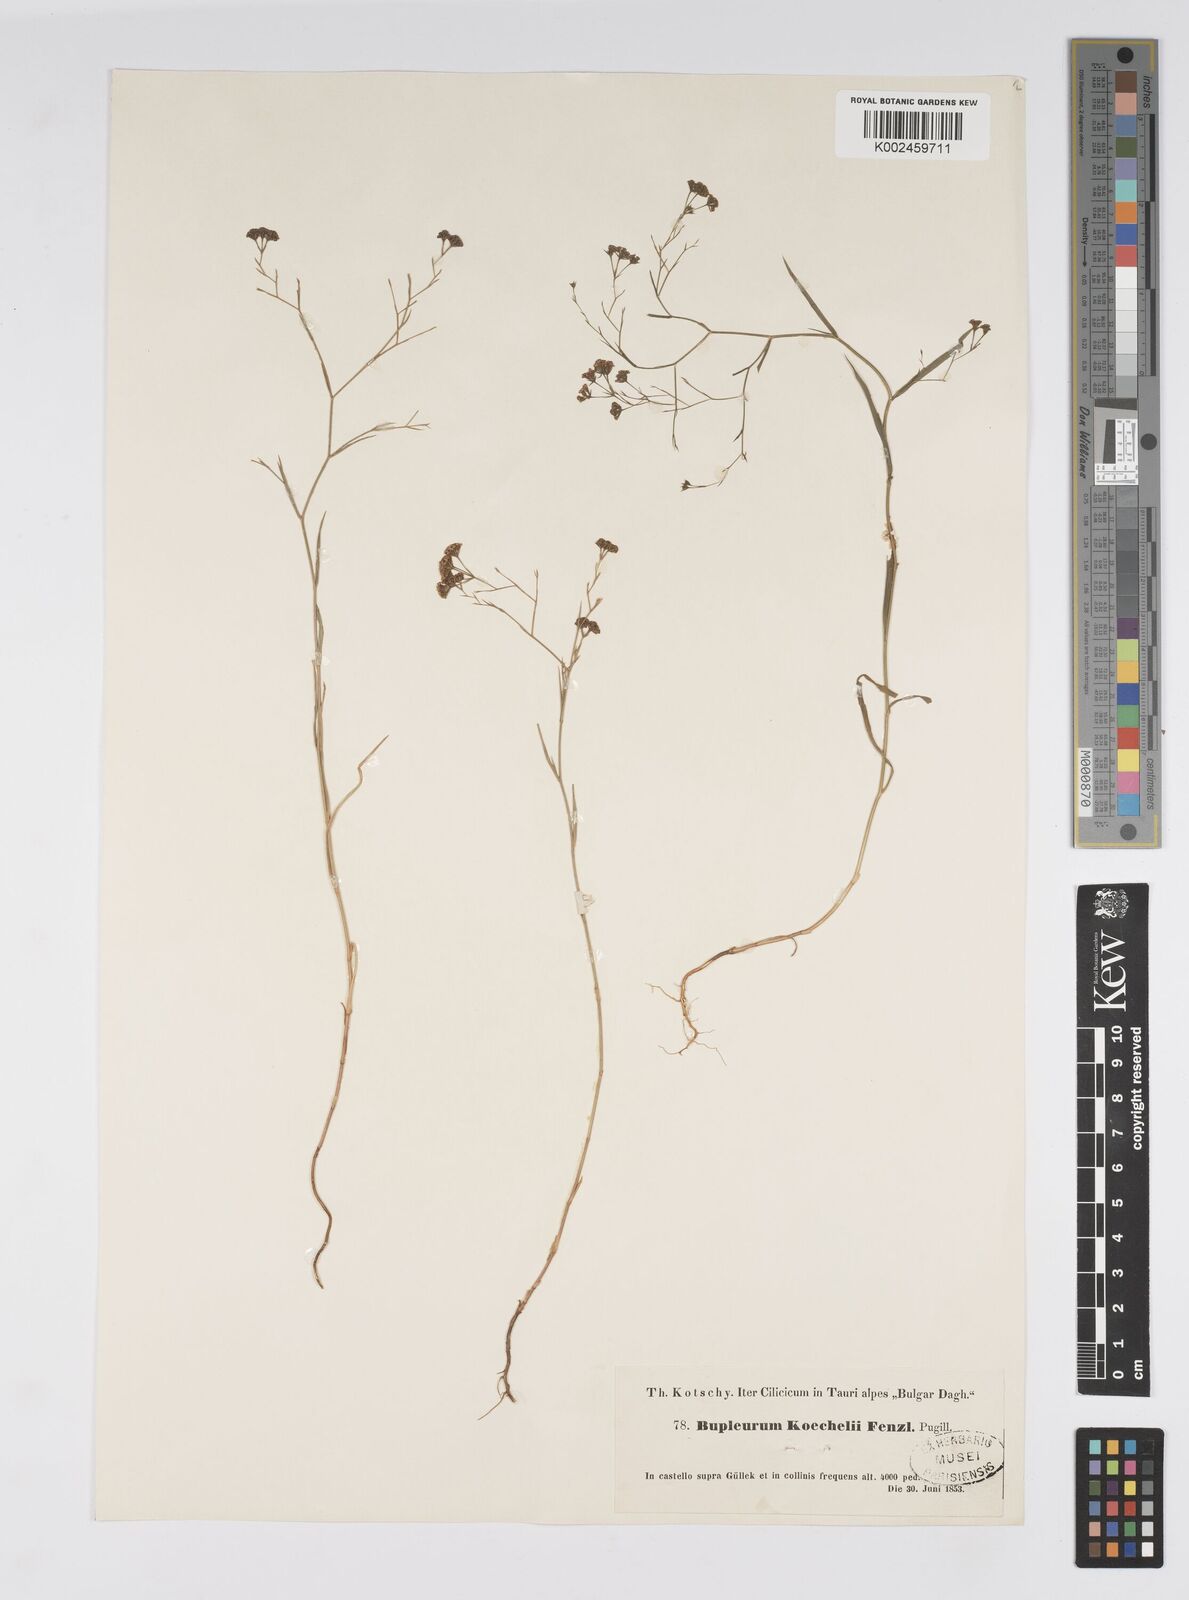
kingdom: Plantae
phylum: Tracheophyta
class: Magnoliopsida
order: Apiales
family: Apiaceae
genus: Bupleurum
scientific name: Bupleurum koechelii
